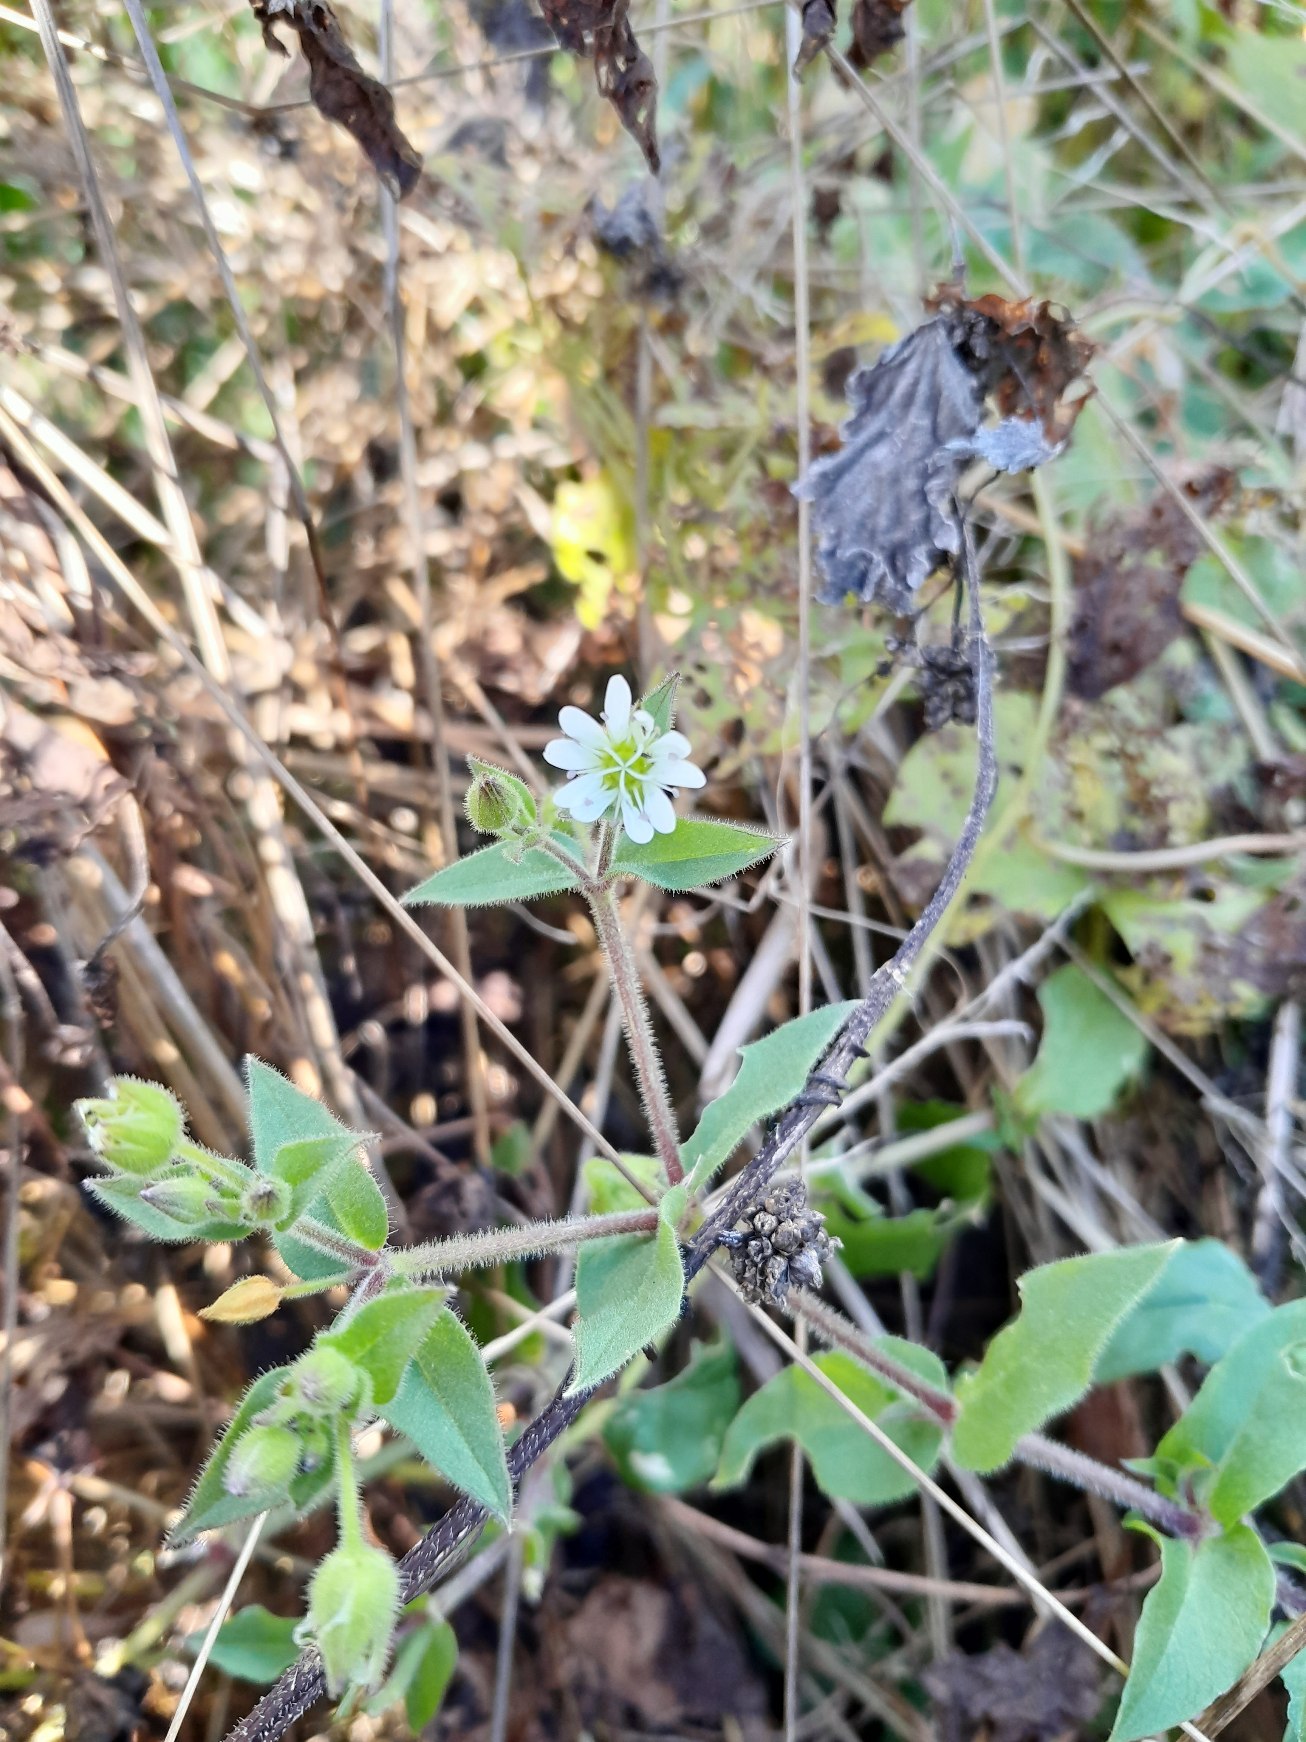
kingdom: Plantae
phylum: Tracheophyta
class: Magnoliopsida
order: Caryophyllales
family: Caryophyllaceae
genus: Stellaria
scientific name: Stellaria aquatica
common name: Kløvkrone
